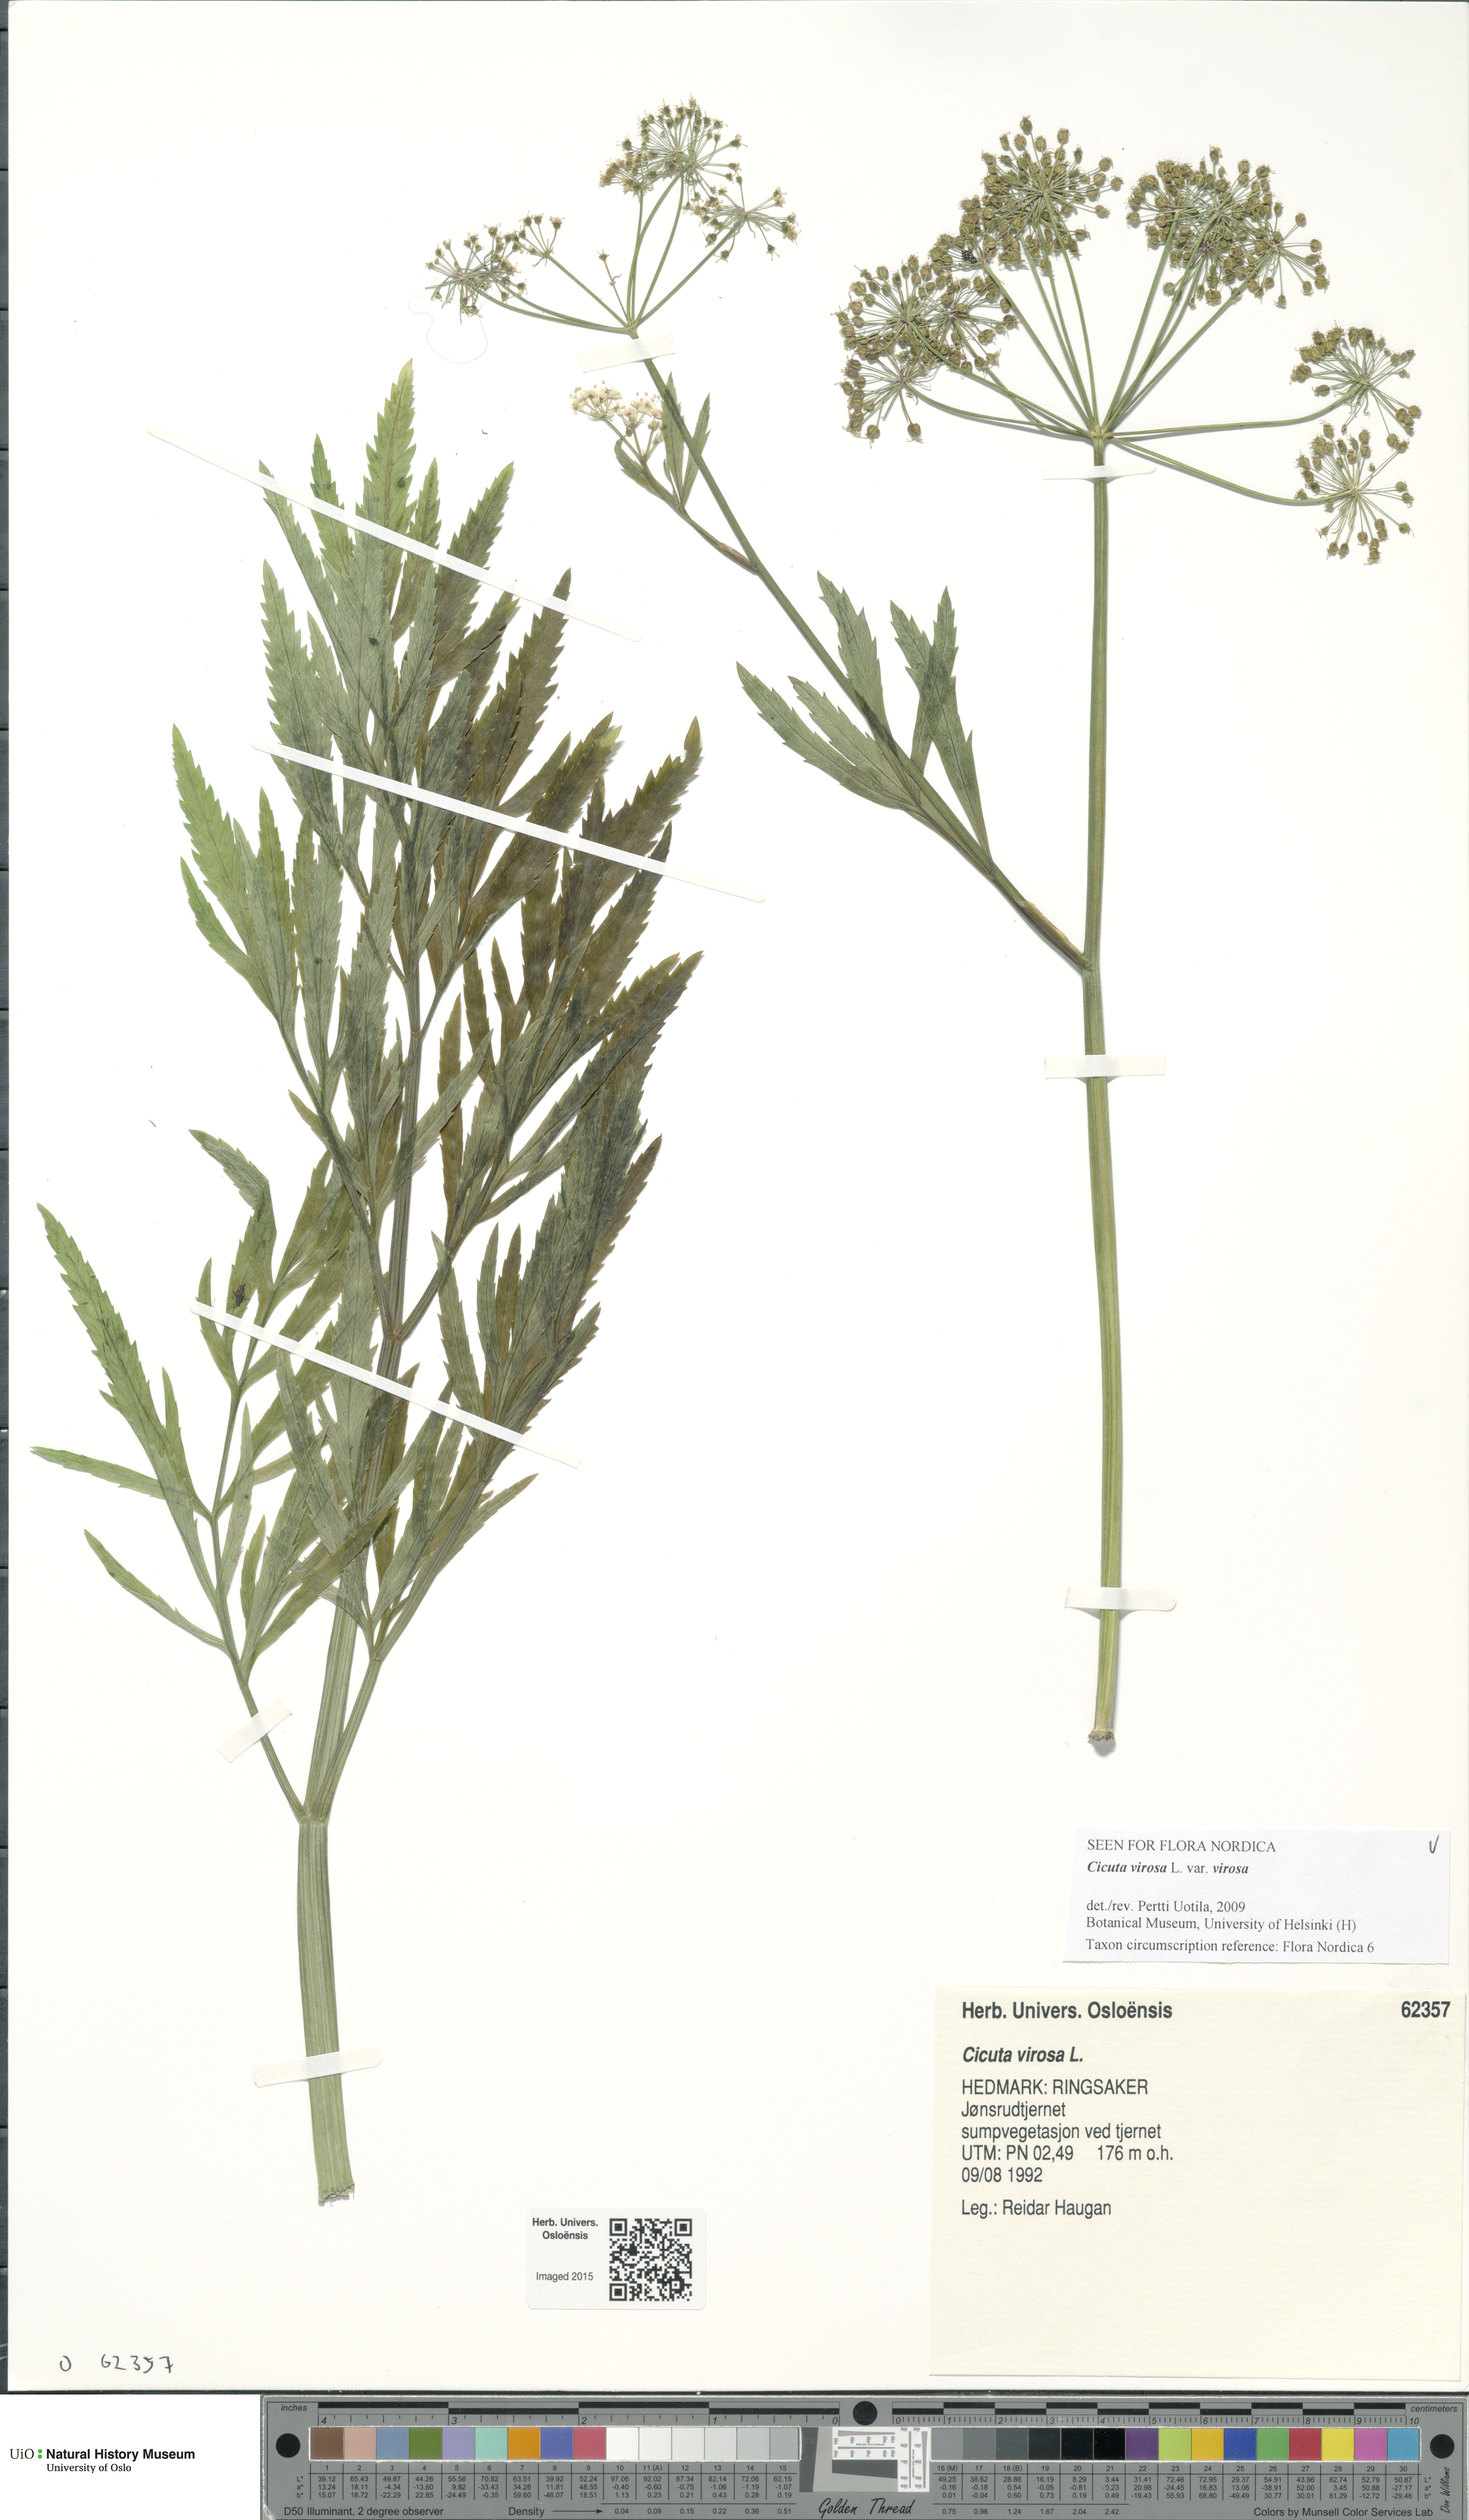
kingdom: Plantae
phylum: Tracheophyta
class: Liliopsida
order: Asparagales
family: Orchidaceae
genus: Dactylorhiza
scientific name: Dactylorhiza incarnata
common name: Early marsh-orchid
